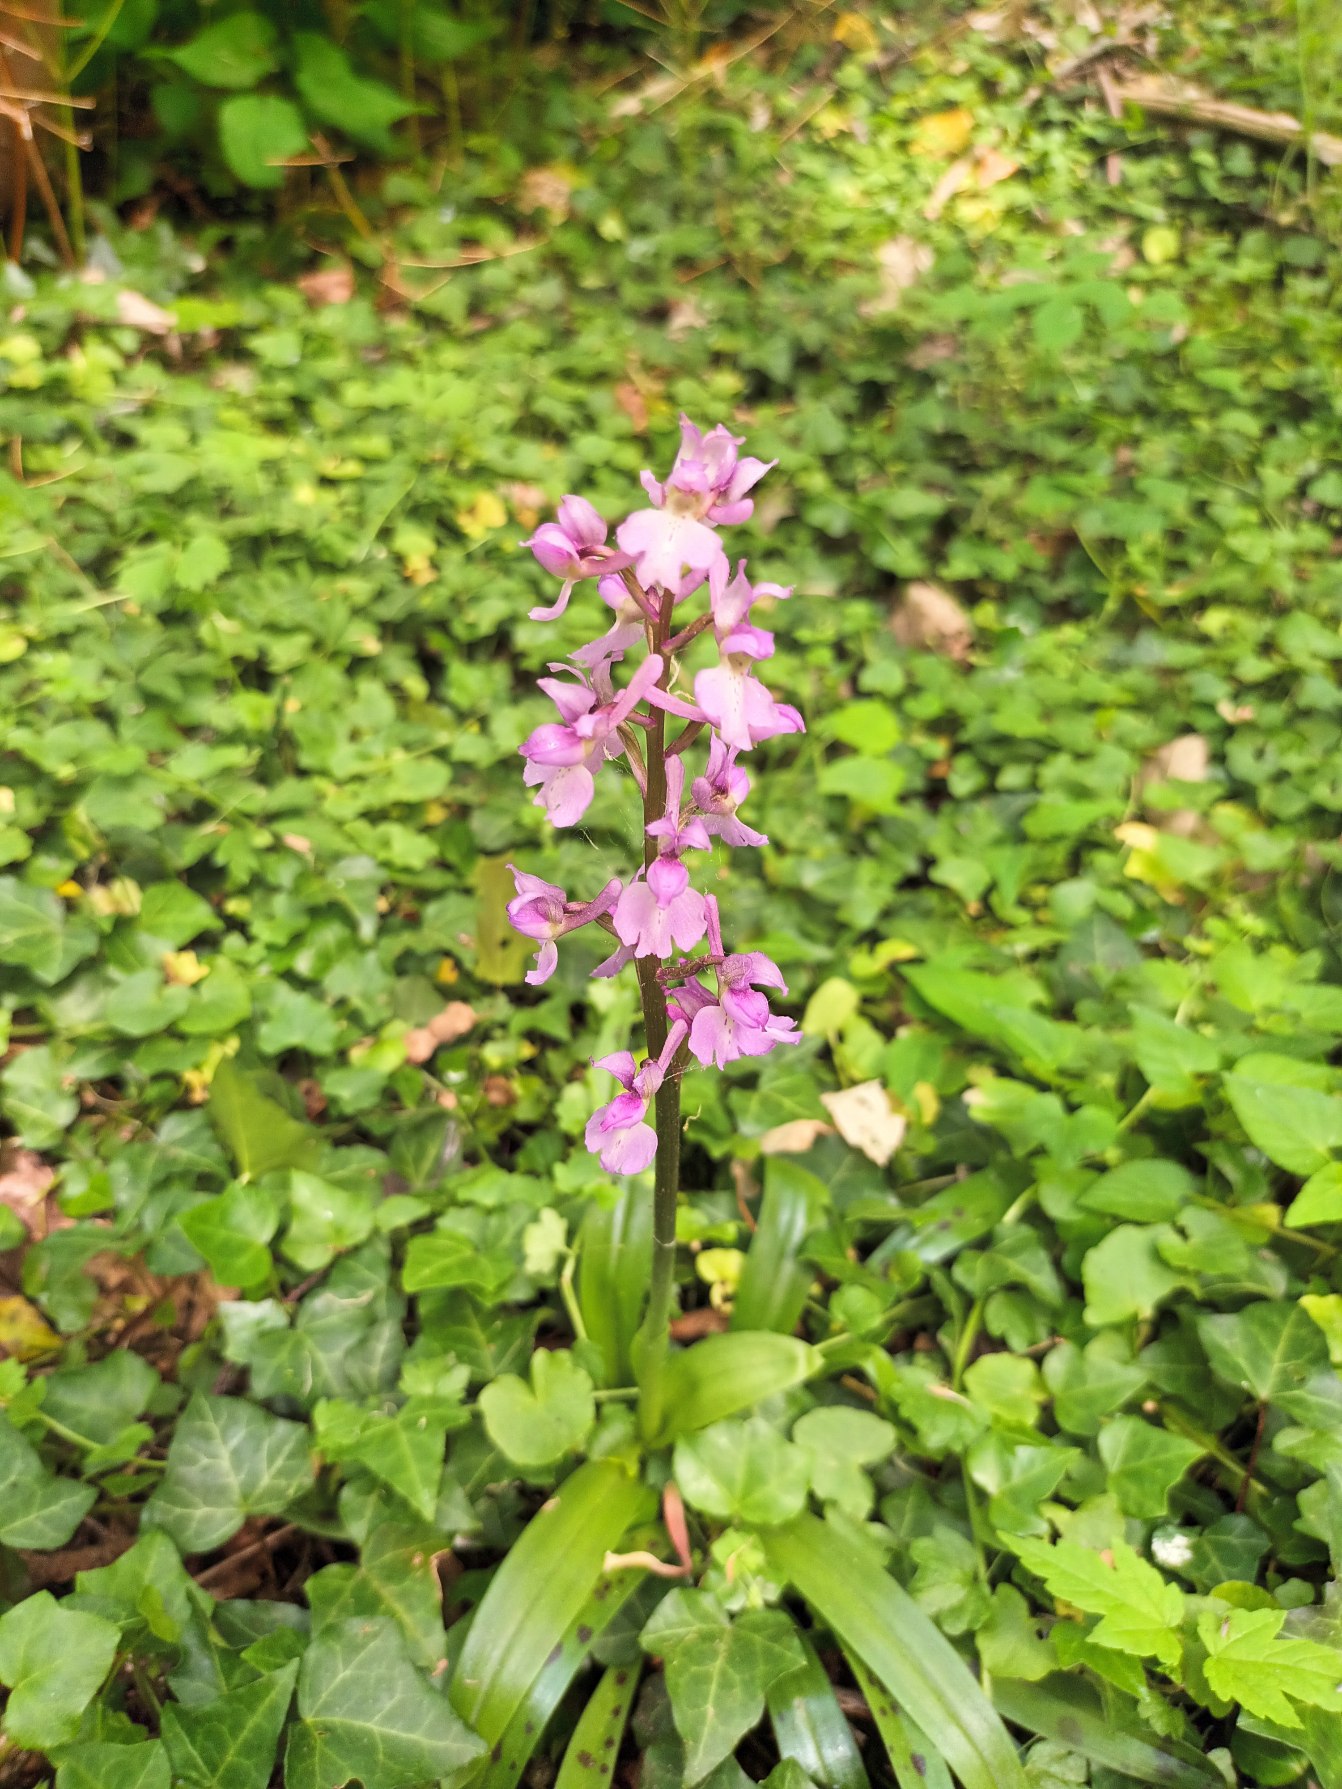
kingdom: Plantae
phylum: Tracheophyta
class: Liliopsida
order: Asparagales
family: Orchidaceae
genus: Orchis
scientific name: Orchis mascula
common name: Tyndakset gøgeurt
